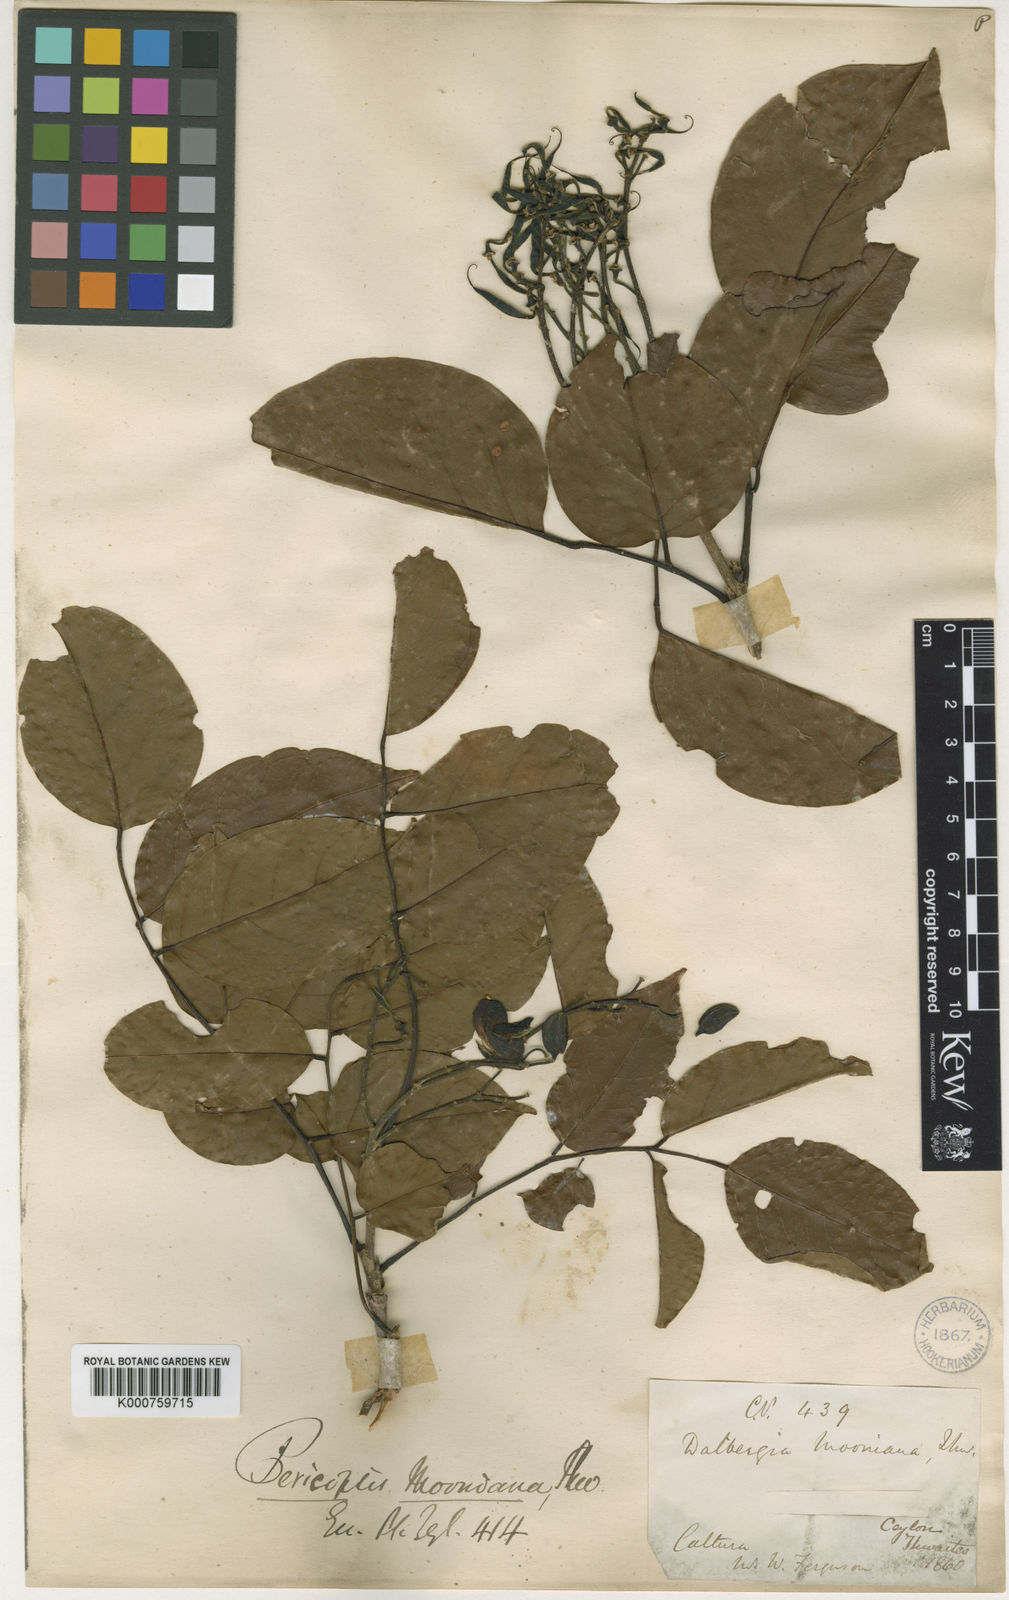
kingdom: Plantae
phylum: Tracheophyta
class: Magnoliopsida
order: Fabales
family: Fabaceae
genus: Pericopsis
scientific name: Pericopsis mooniana
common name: Nandu wood
